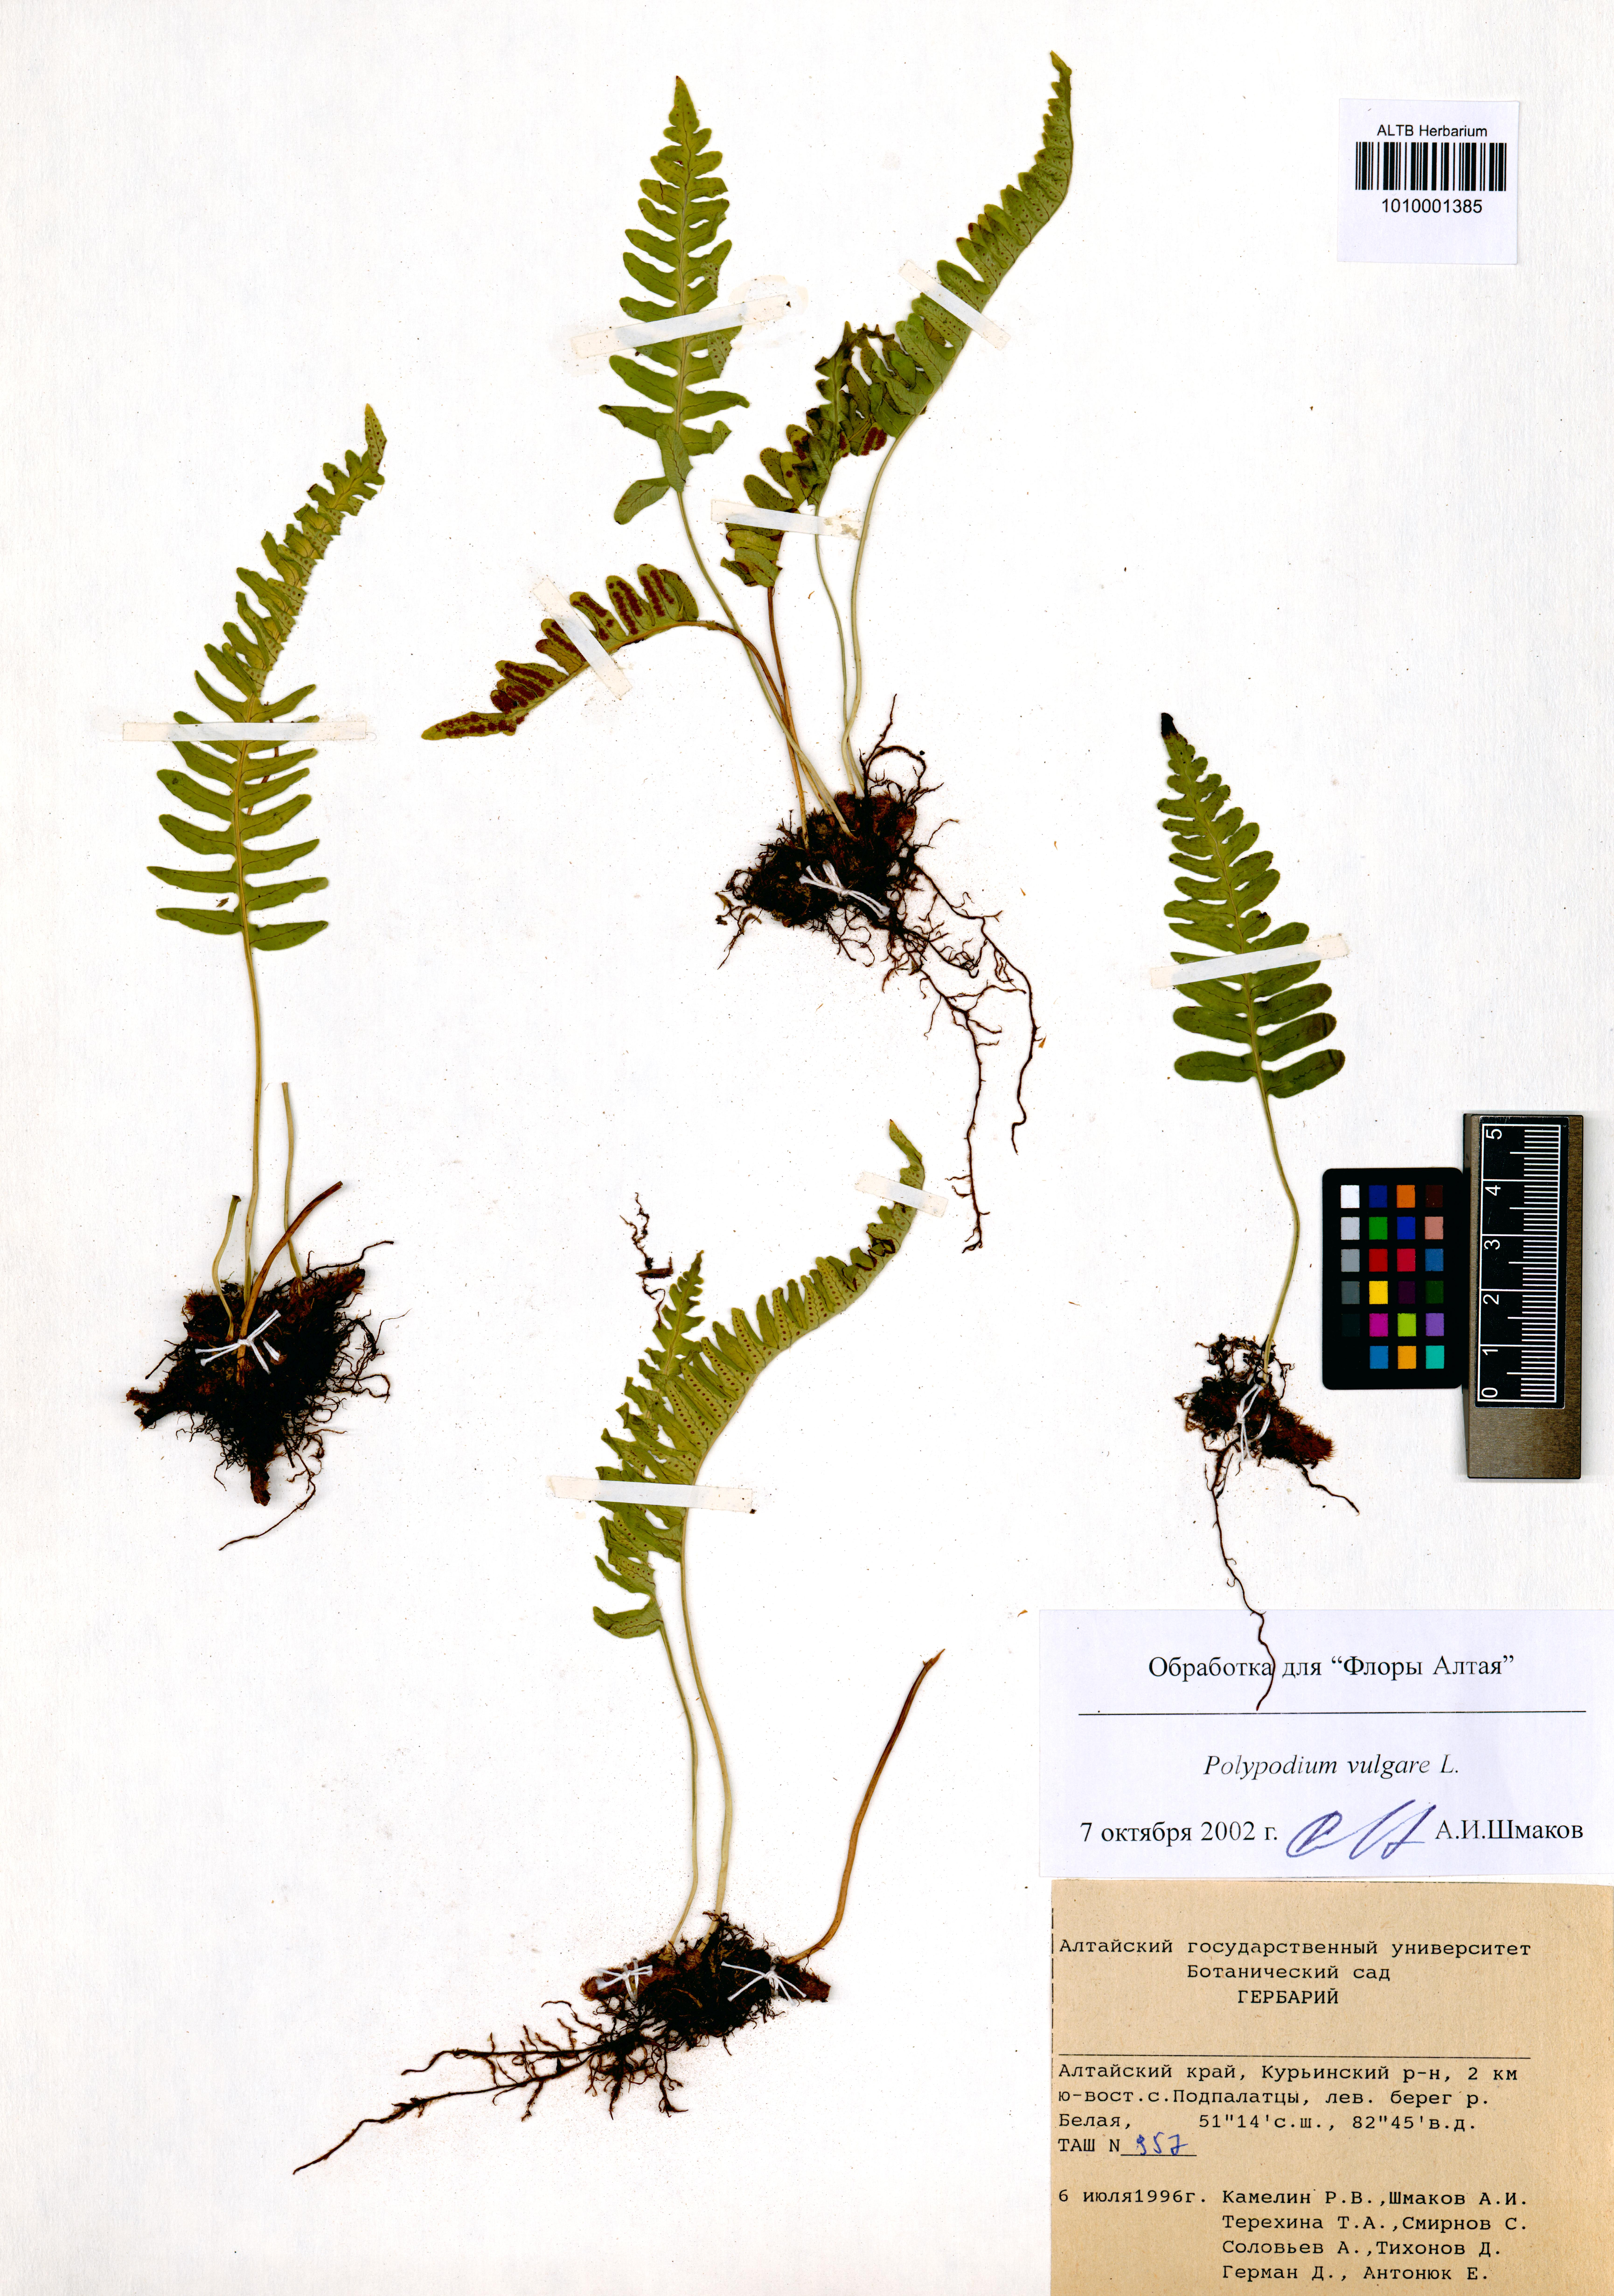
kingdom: Plantae
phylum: Tracheophyta
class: Polypodiopsida
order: Polypodiales
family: Polypodiaceae
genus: Polypodium
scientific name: Polypodium vulgare
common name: Common polypody
